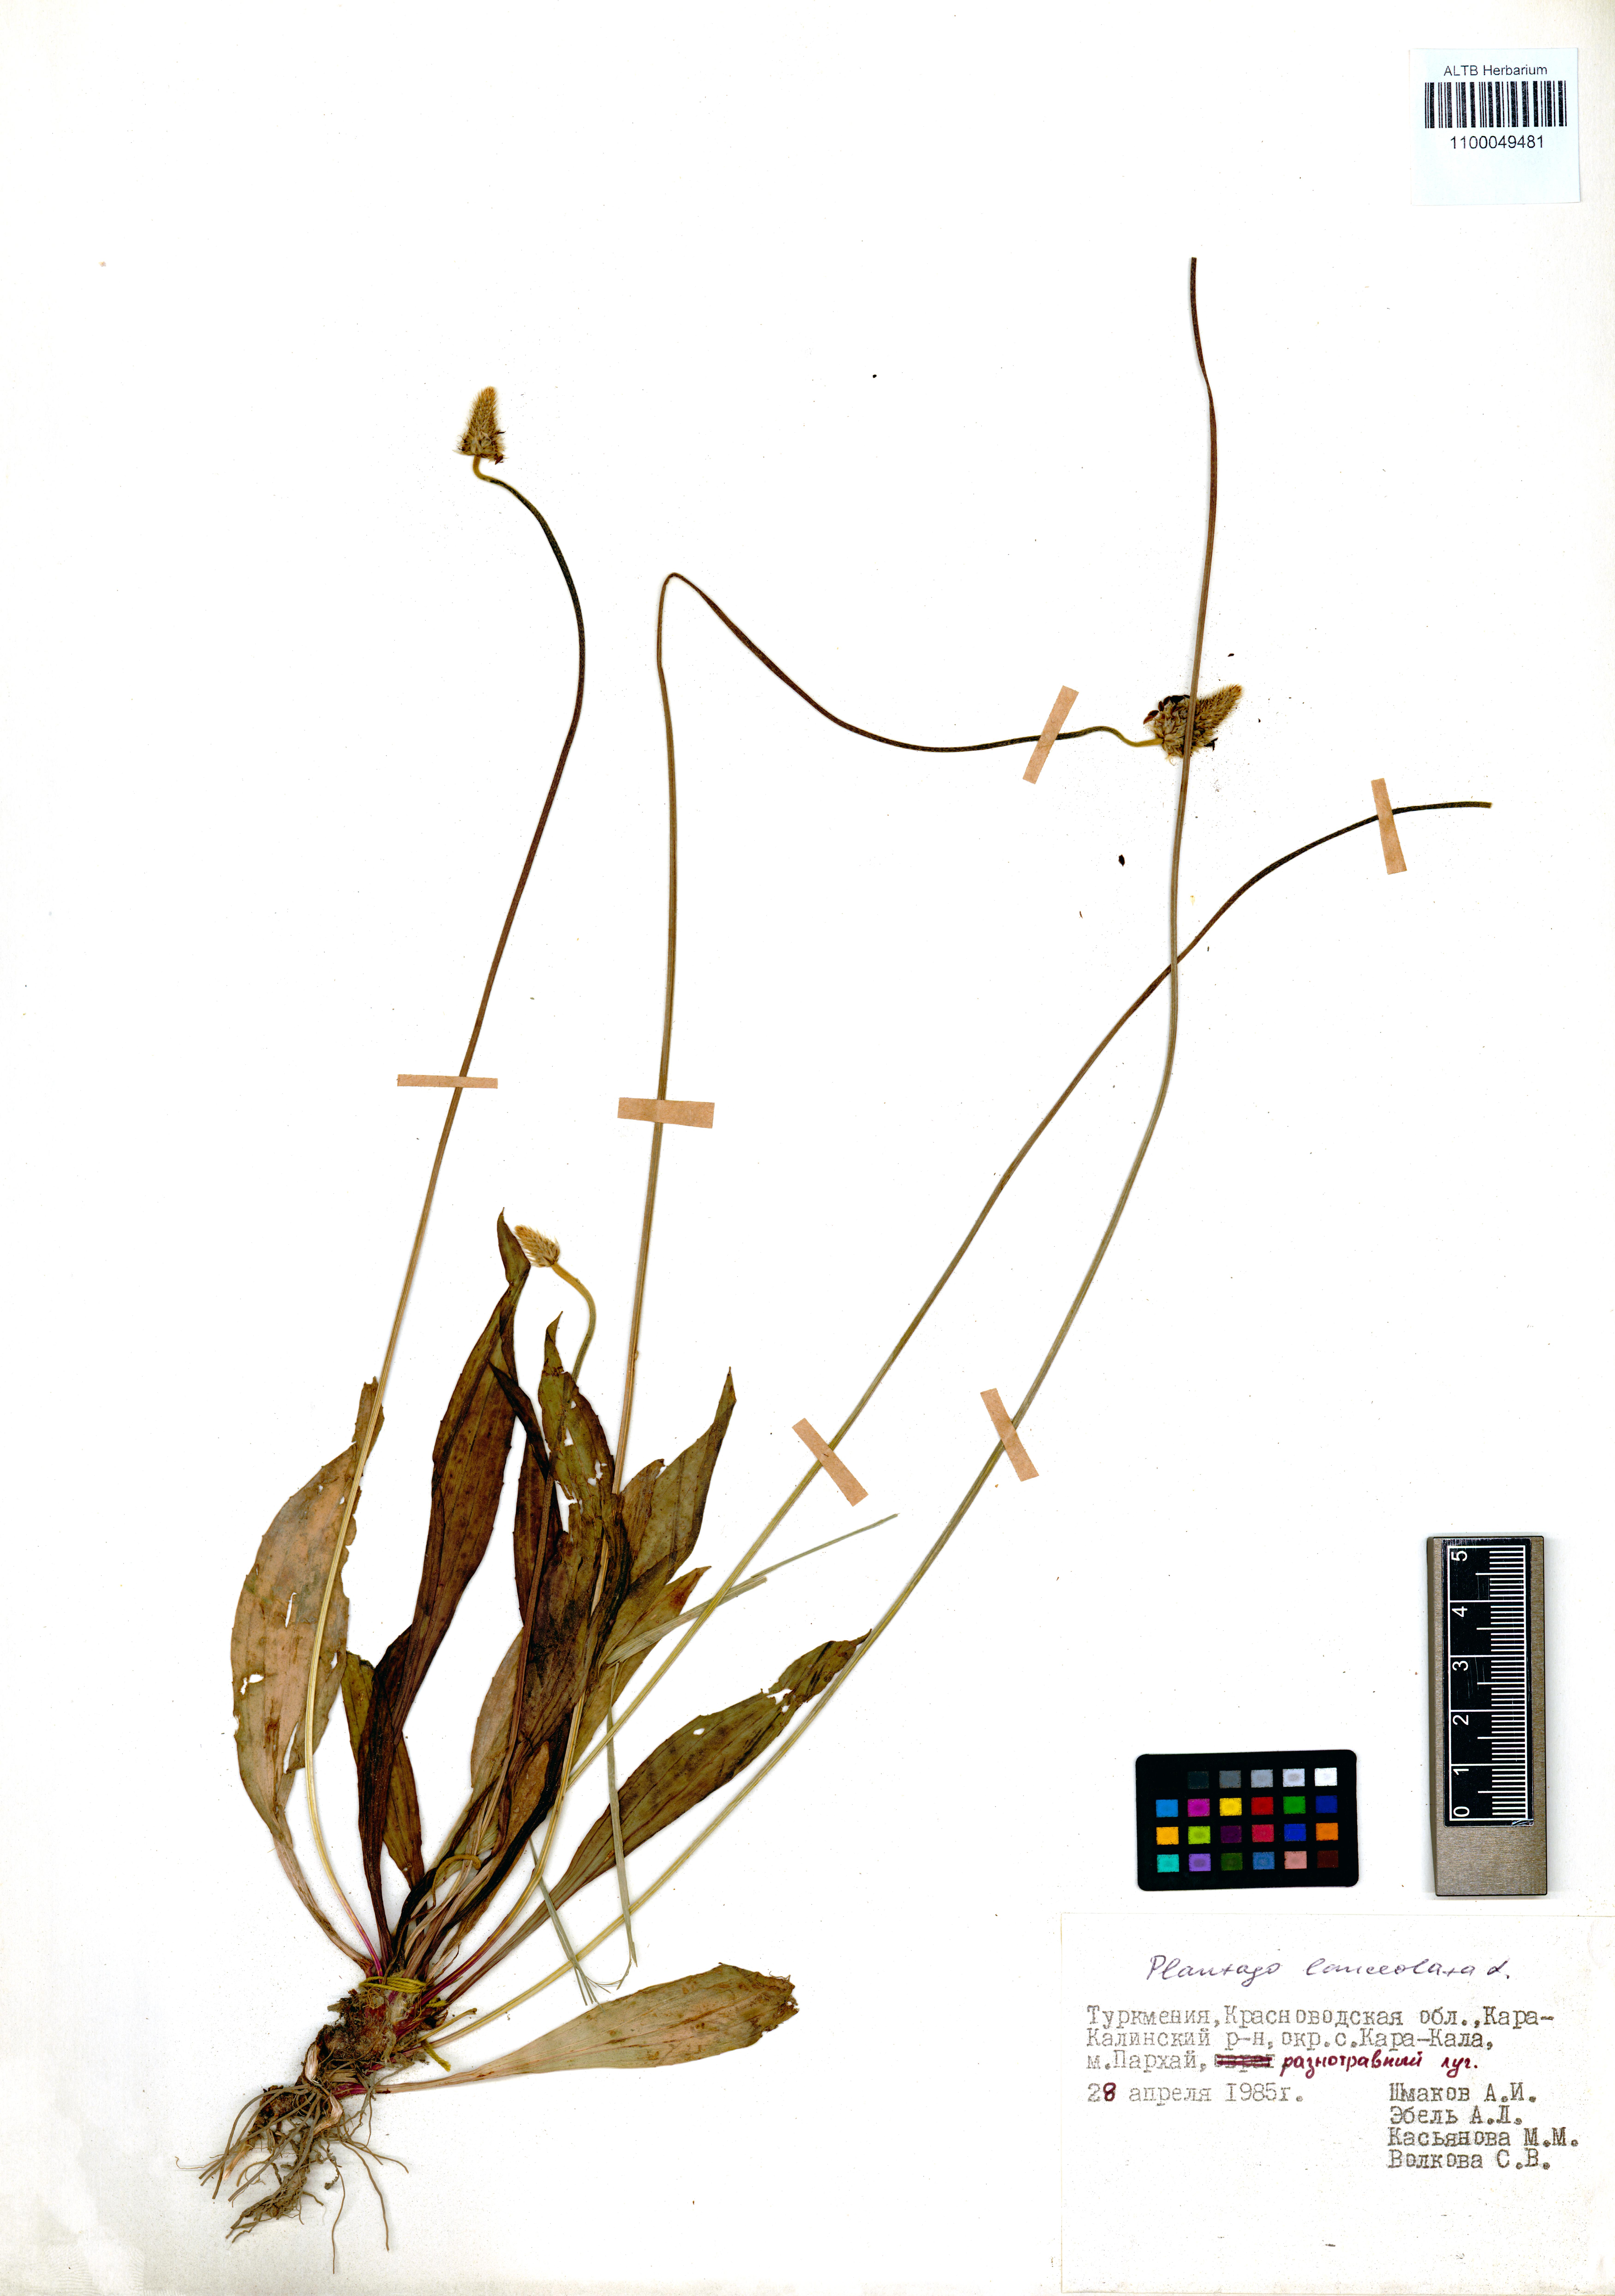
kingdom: Plantae
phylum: Tracheophyta
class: Magnoliopsida
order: Lamiales
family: Plantaginaceae
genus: Plantago
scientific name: Plantago lanceolata
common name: Ribwort plantain
